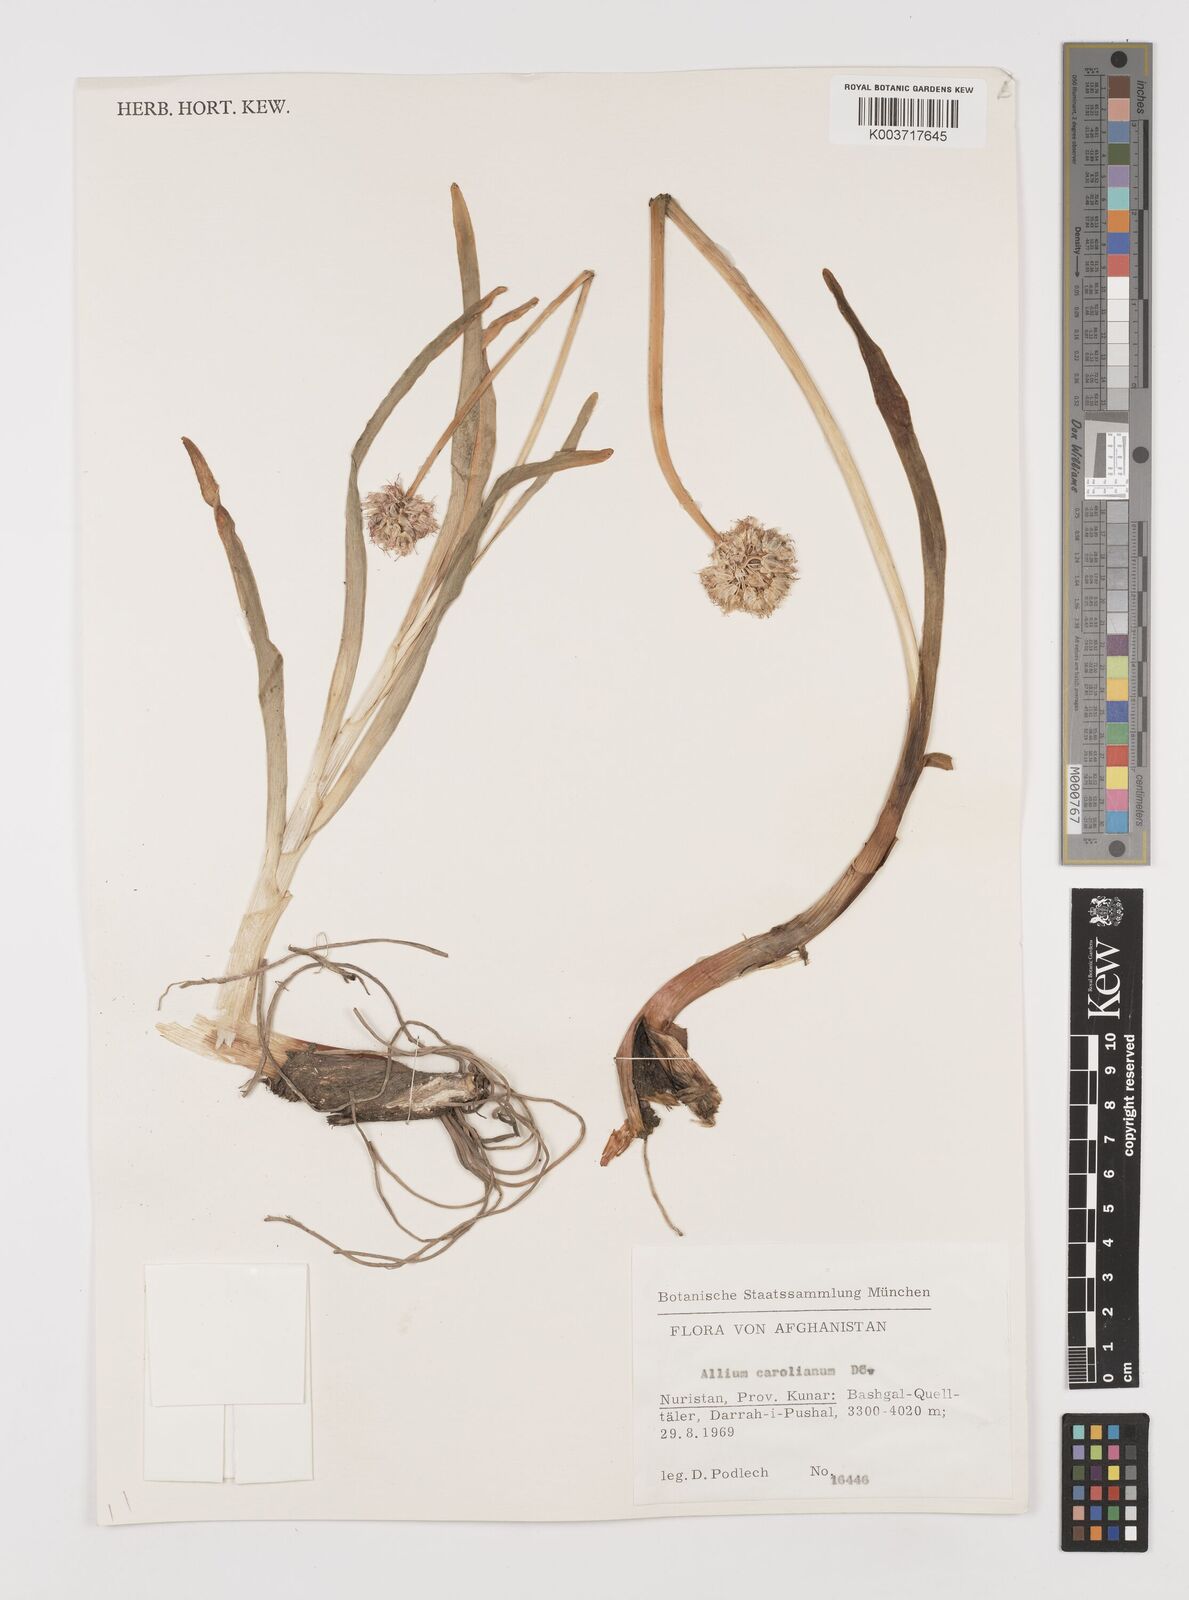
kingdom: Plantae
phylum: Tracheophyta
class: Liliopsida
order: Asparagales
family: Amaryllidaceae
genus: Allium
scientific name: Allium carolinianum
